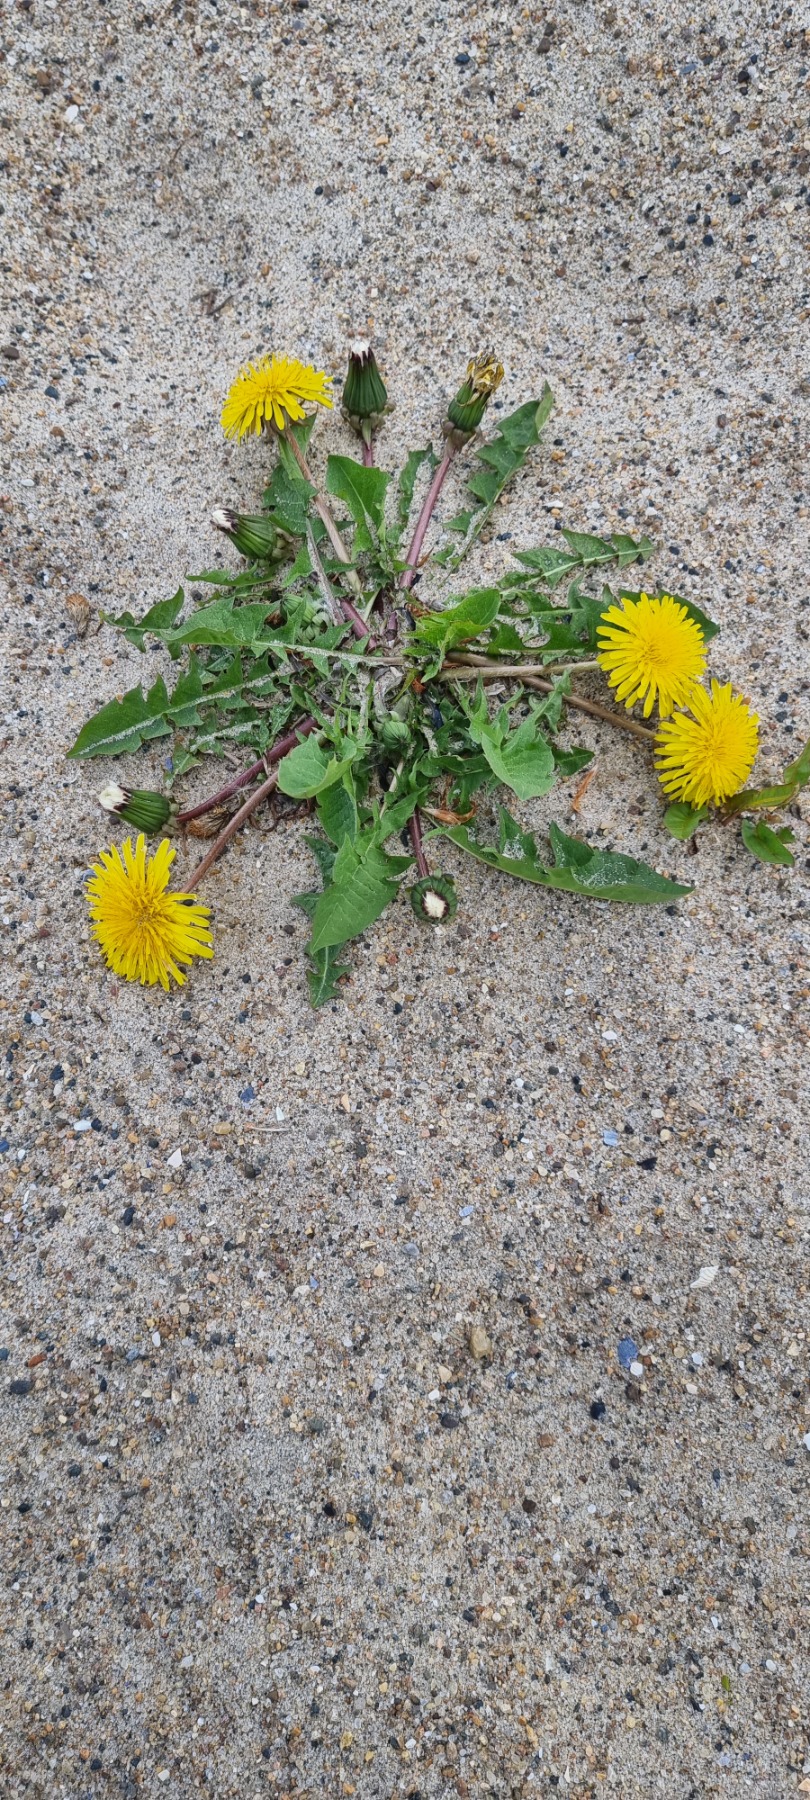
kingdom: Plantae
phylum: Tracheophyta
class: Magnoliopsida
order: Asterales
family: Asteraceae
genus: Taraxacum
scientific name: Taraxacum
